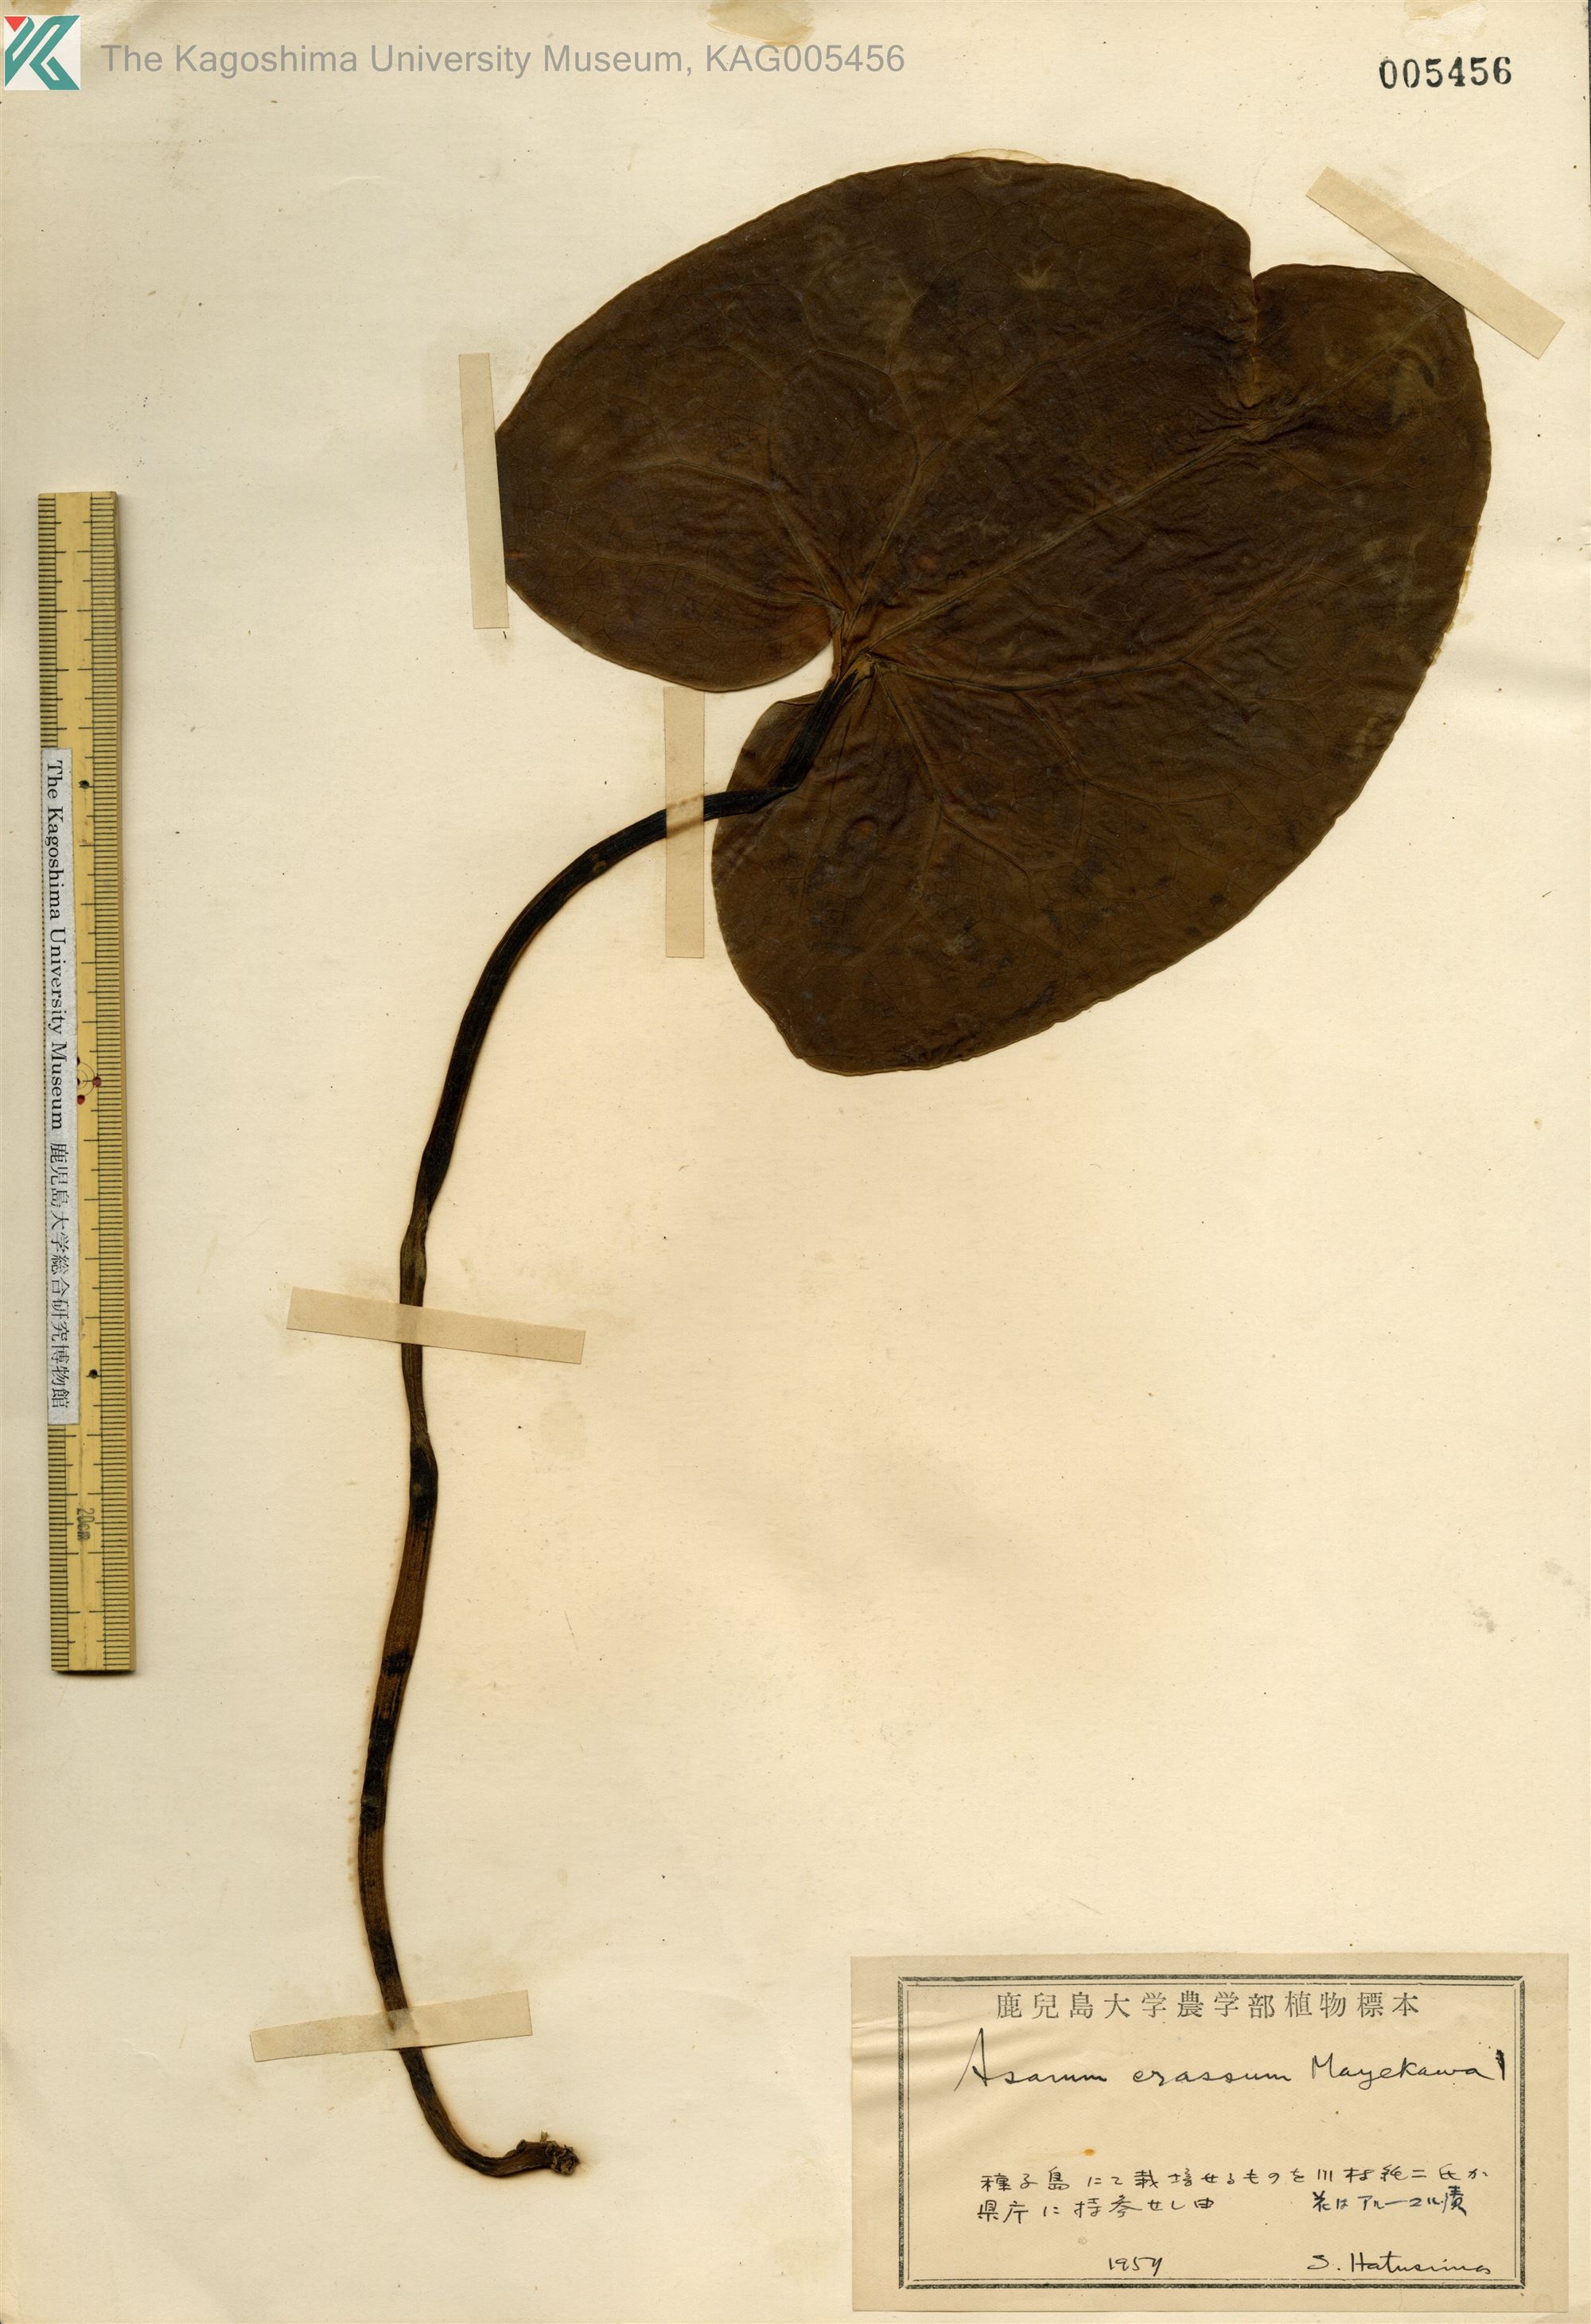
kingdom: Plantae
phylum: Tracheophyta
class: Magnoliopsida
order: Piperales
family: Aristolochiaceae
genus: Asarum
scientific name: Asarum crassum
